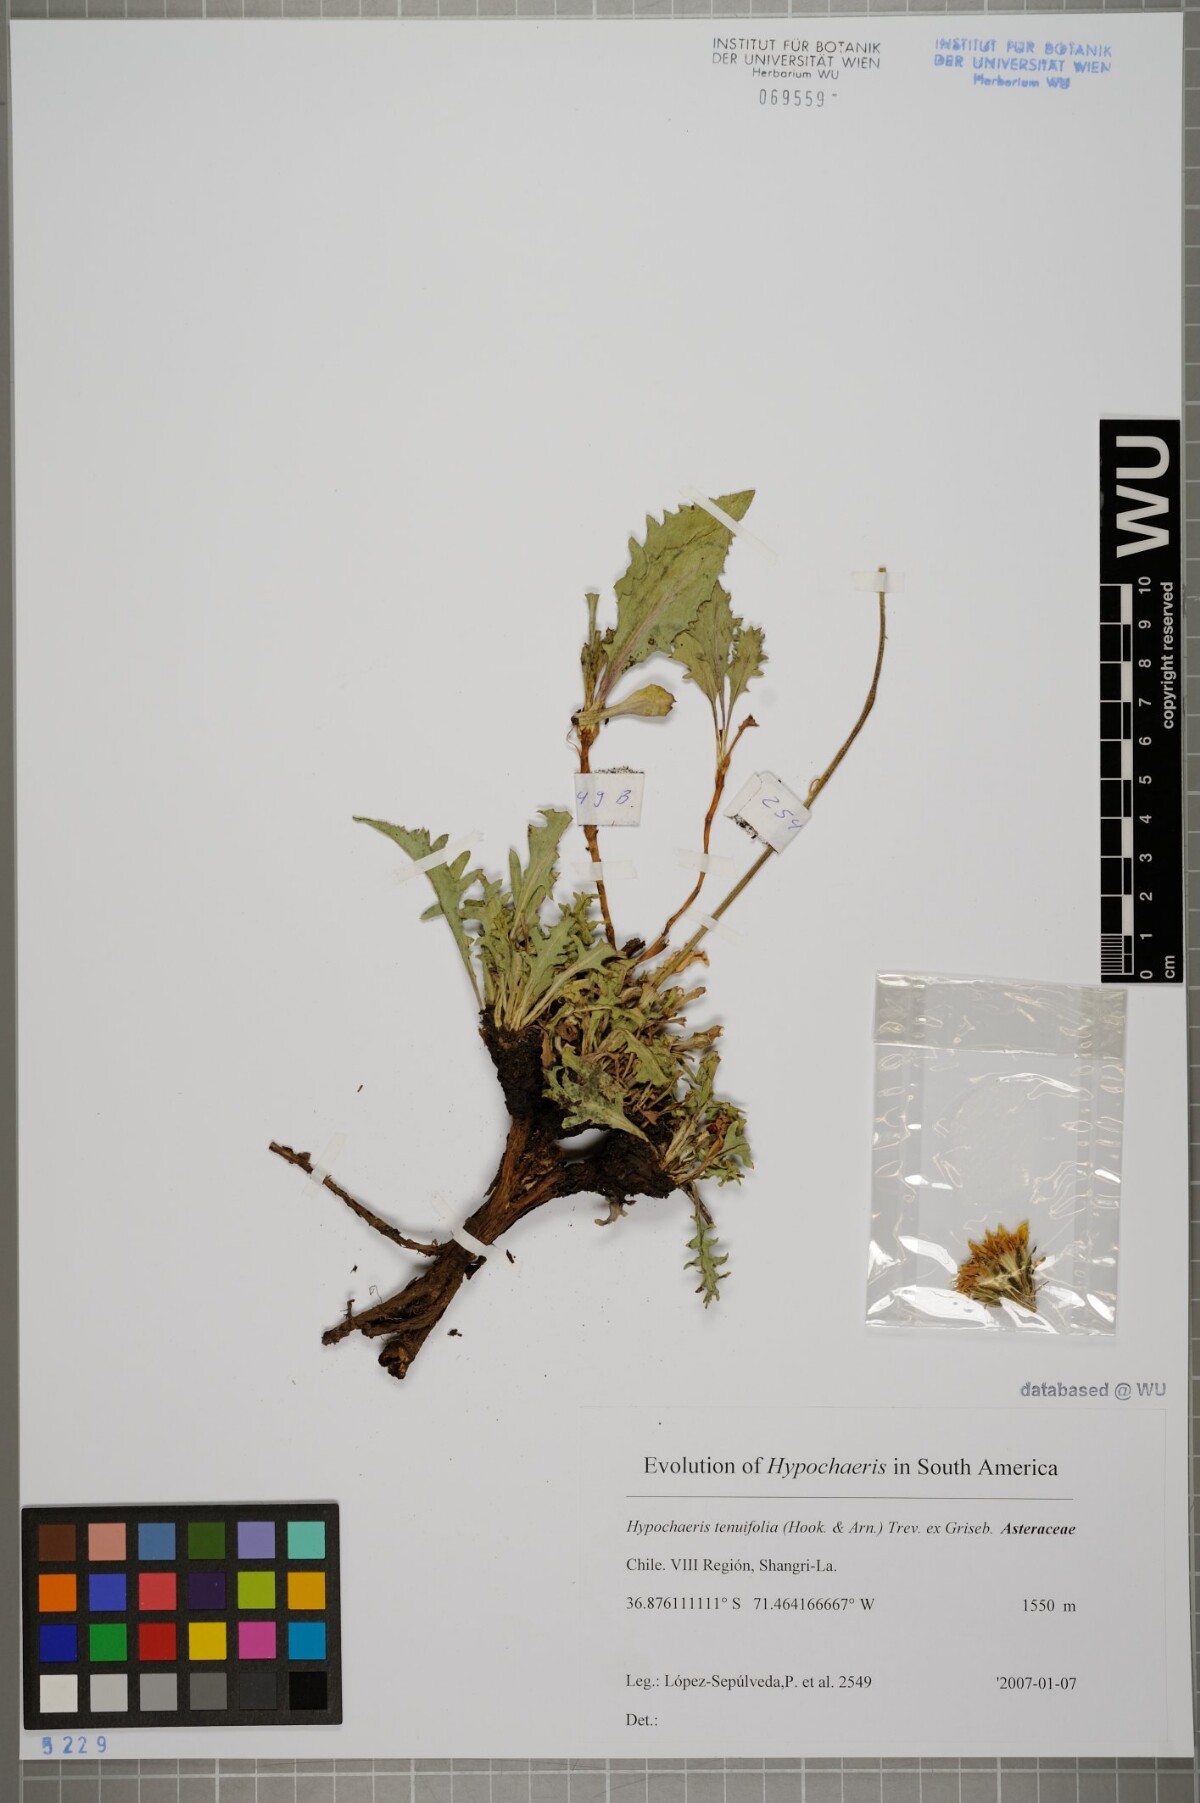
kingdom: Plantae
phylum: Tracheophyta
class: Magnoliopsida
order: Asterales
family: Asteraceae
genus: Hypochaeris
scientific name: Hypochaeris tenuifolia
